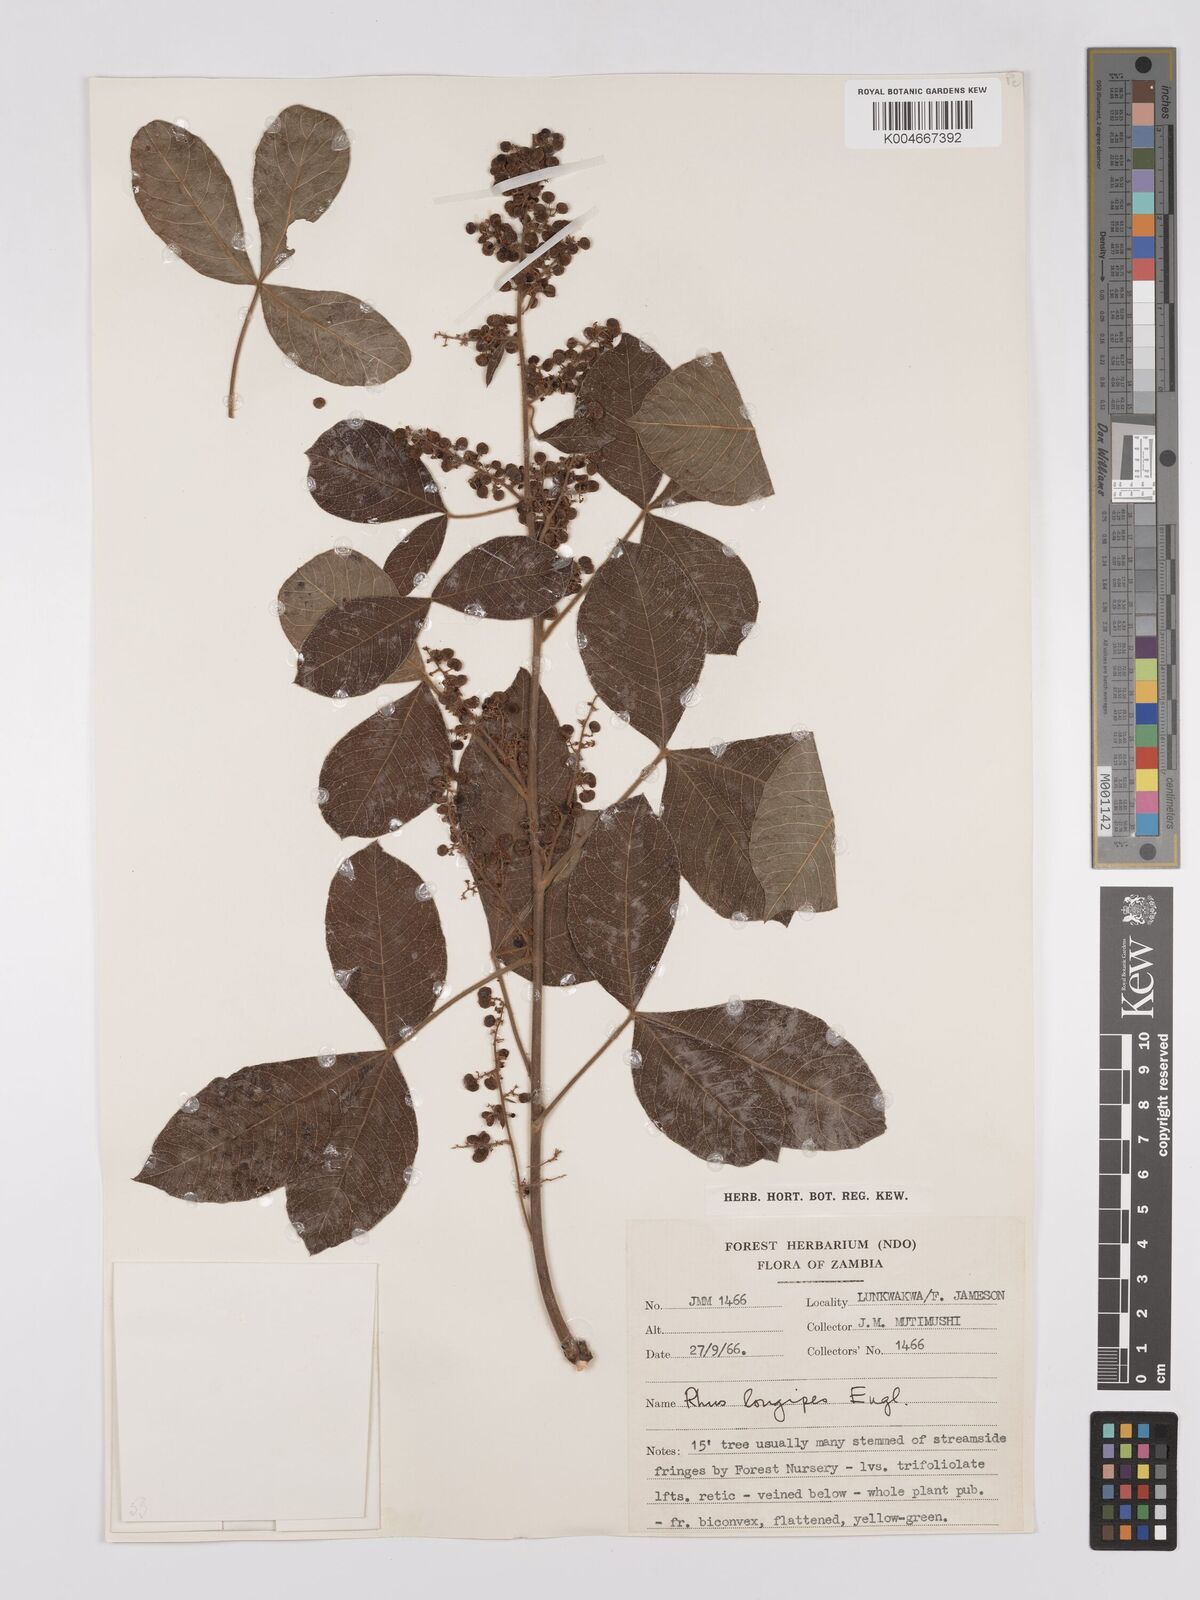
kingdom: Plantae
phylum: Tracheophyta
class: Magnoliopsida
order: Sapindales
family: Anacardiaceae
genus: Searsia
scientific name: Searsia longipes
